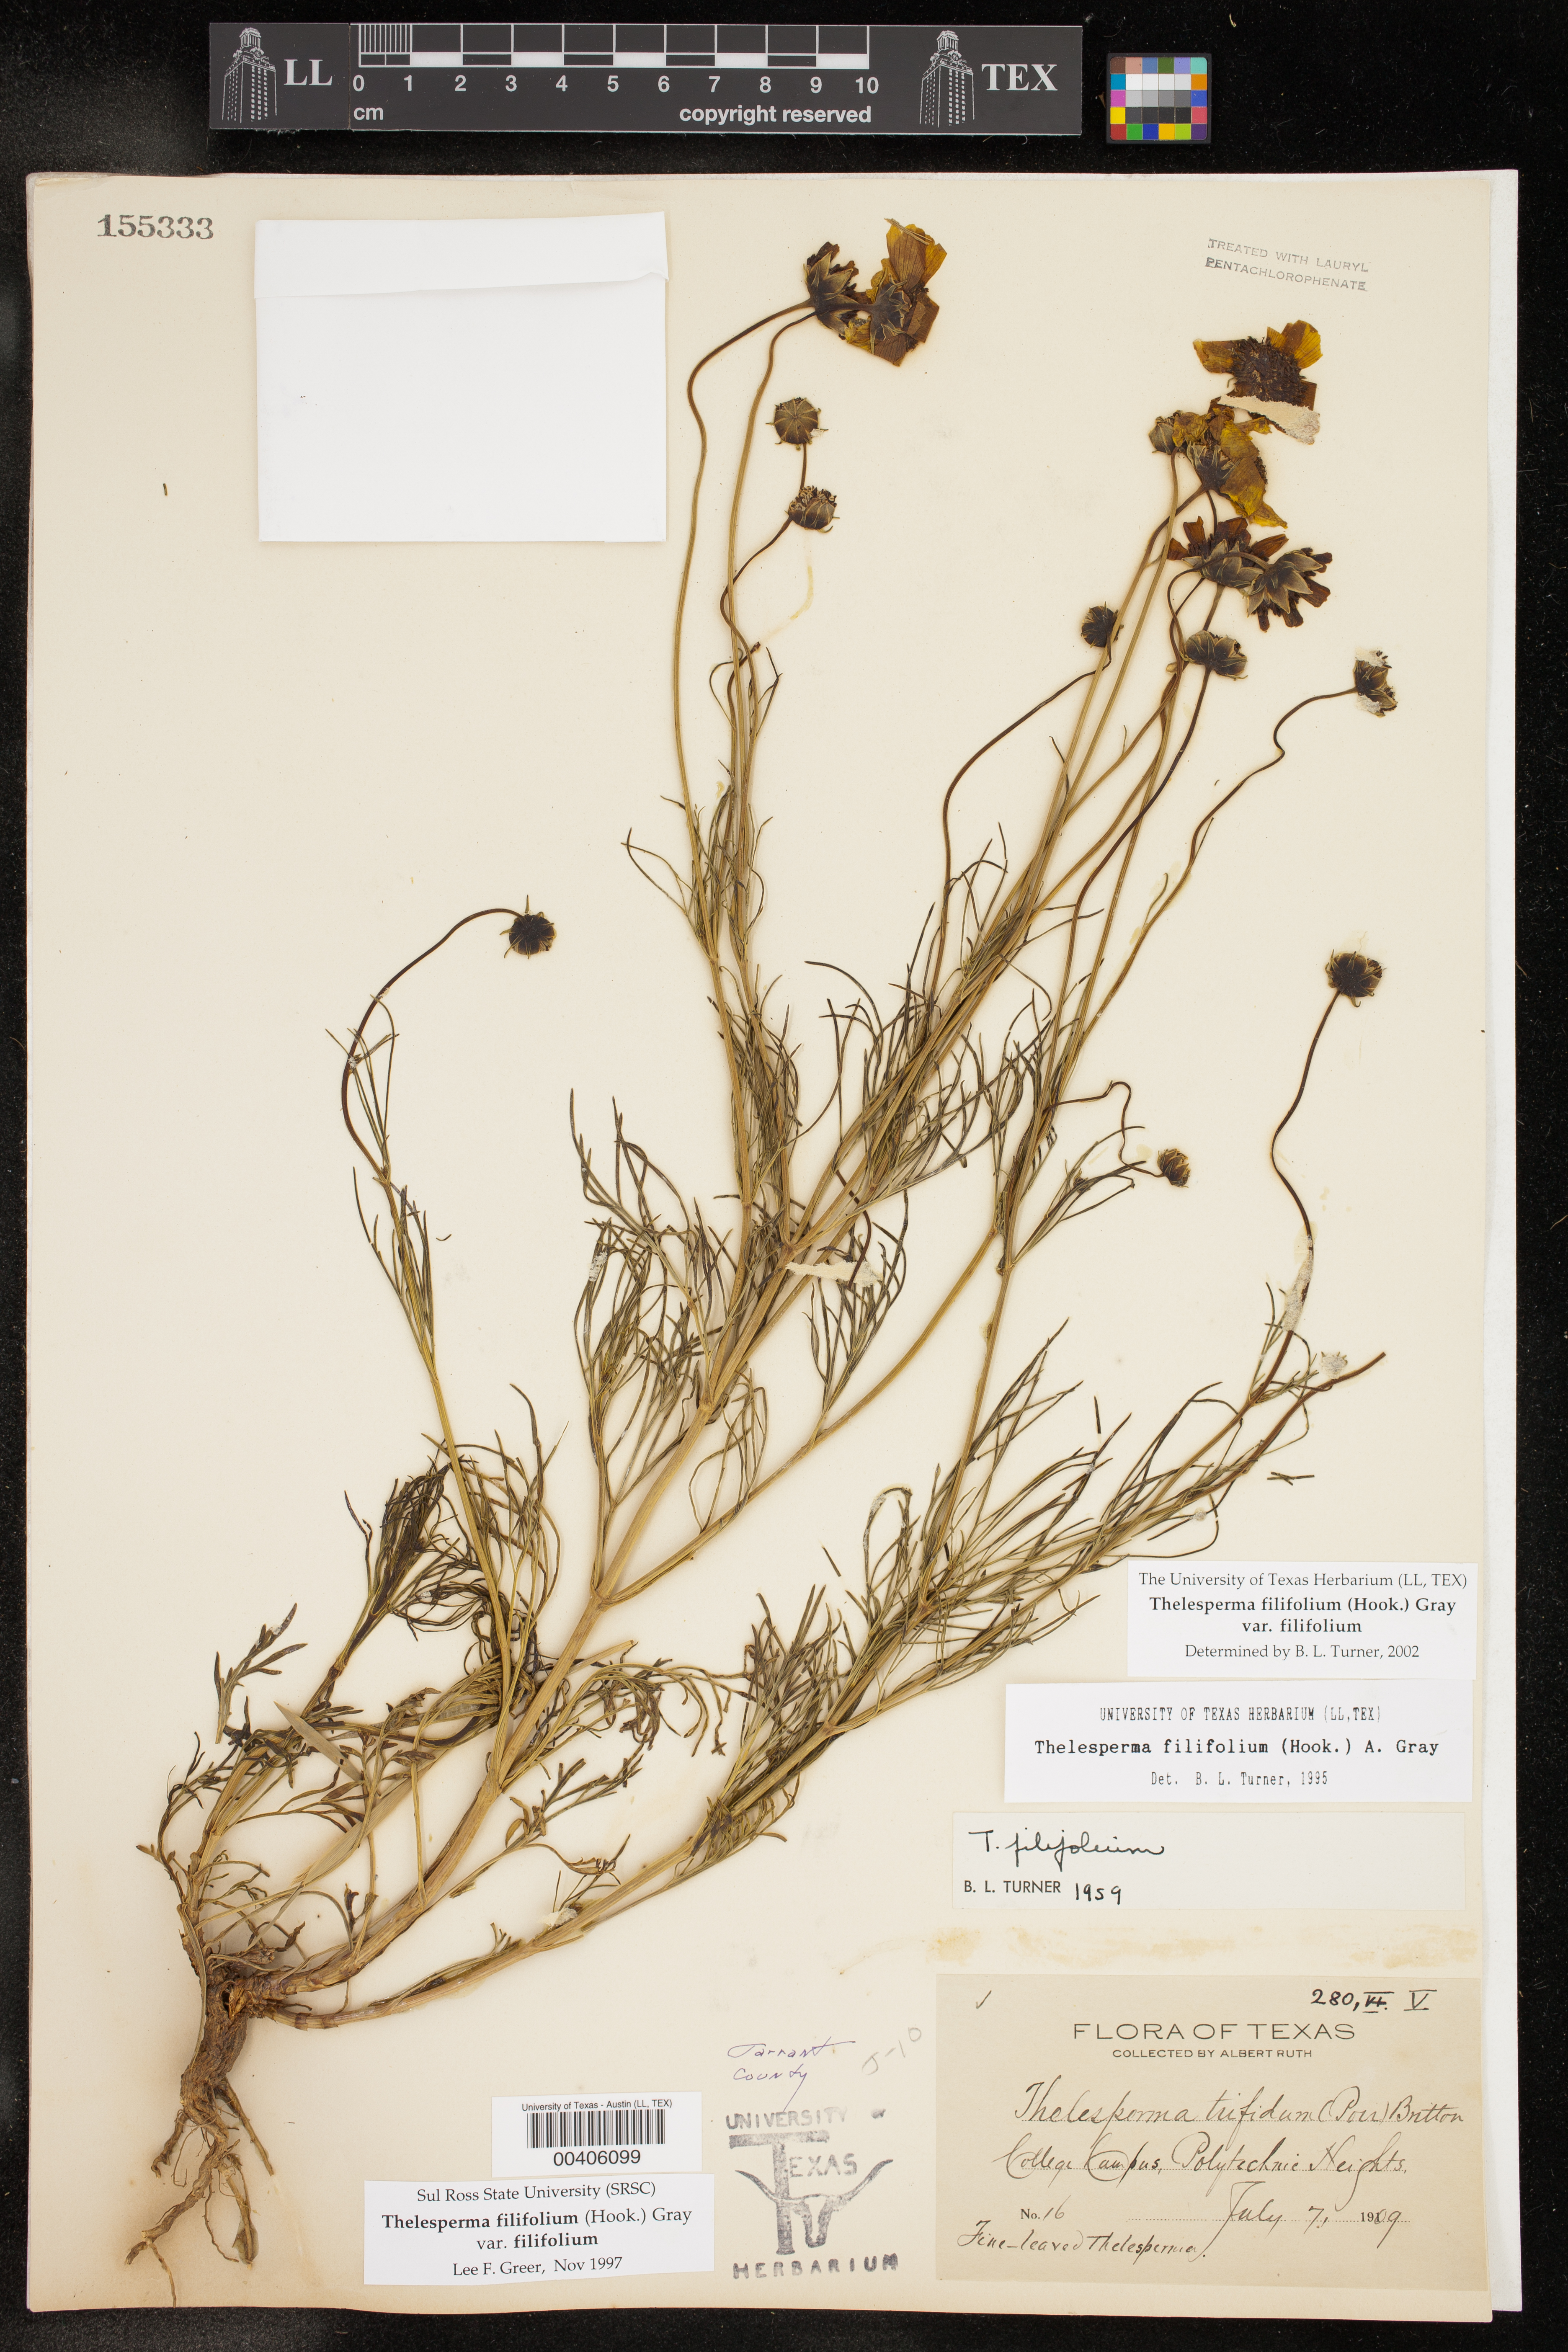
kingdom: Plantae
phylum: Tracheophyta
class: Magnoliopsida
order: Asterales
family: Asteraceae
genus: Thelesperma
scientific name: Thelesperma filifolium
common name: Stiff greenthread
